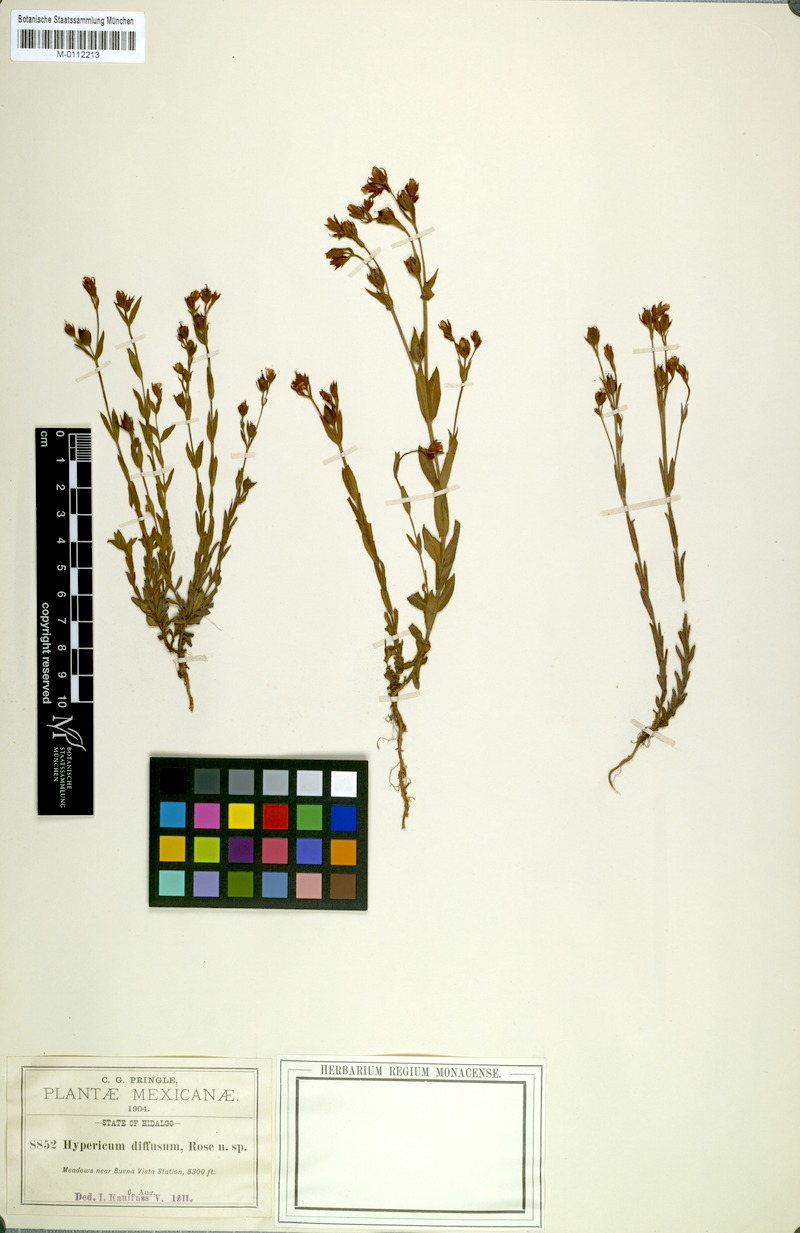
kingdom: Plantae
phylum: Tracheophyta
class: Magnoliopsida
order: Malpighiales
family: Hypericaceae
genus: Hypericum
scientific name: Hypericum pumilum
